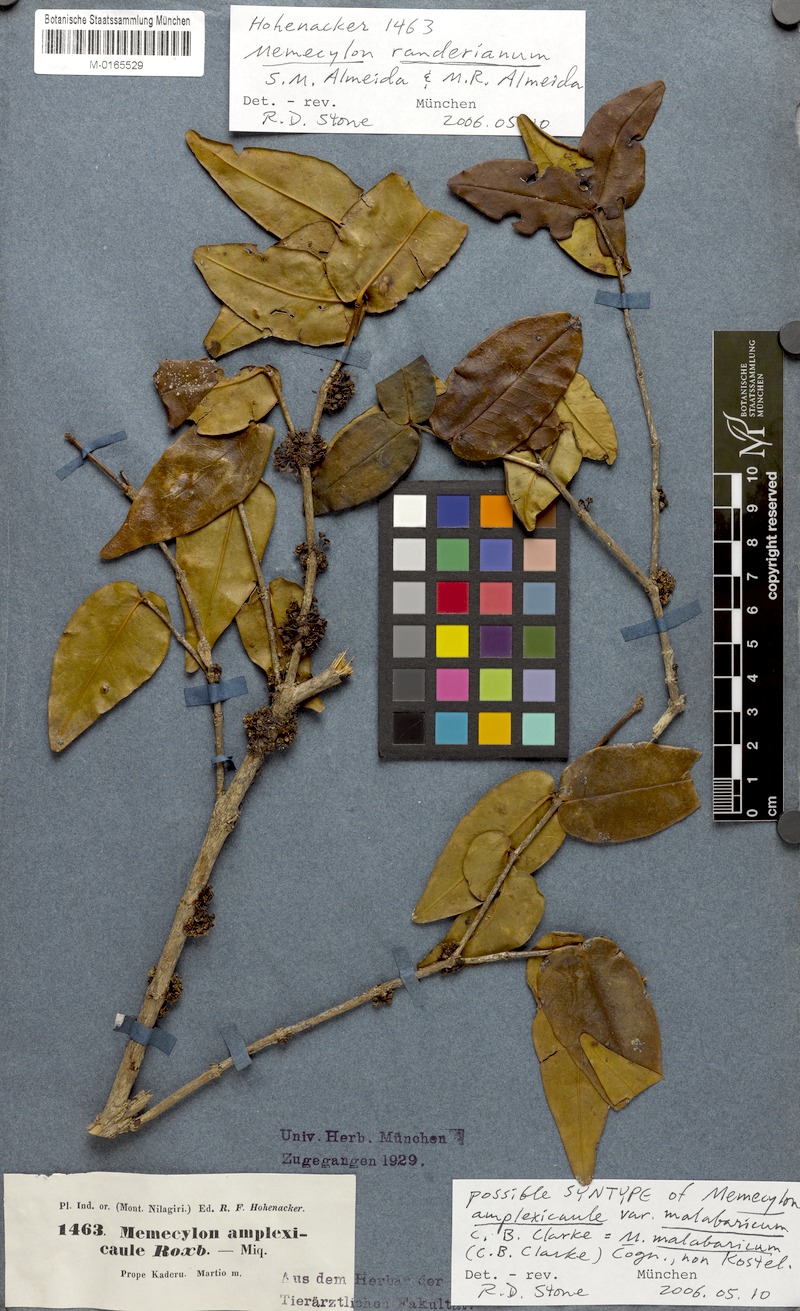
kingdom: Plantae
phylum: Tracheophyta
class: Magnoliopsida
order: Myrtales
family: Melastomataceae
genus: Memecylon
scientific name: Memecylon sessile
